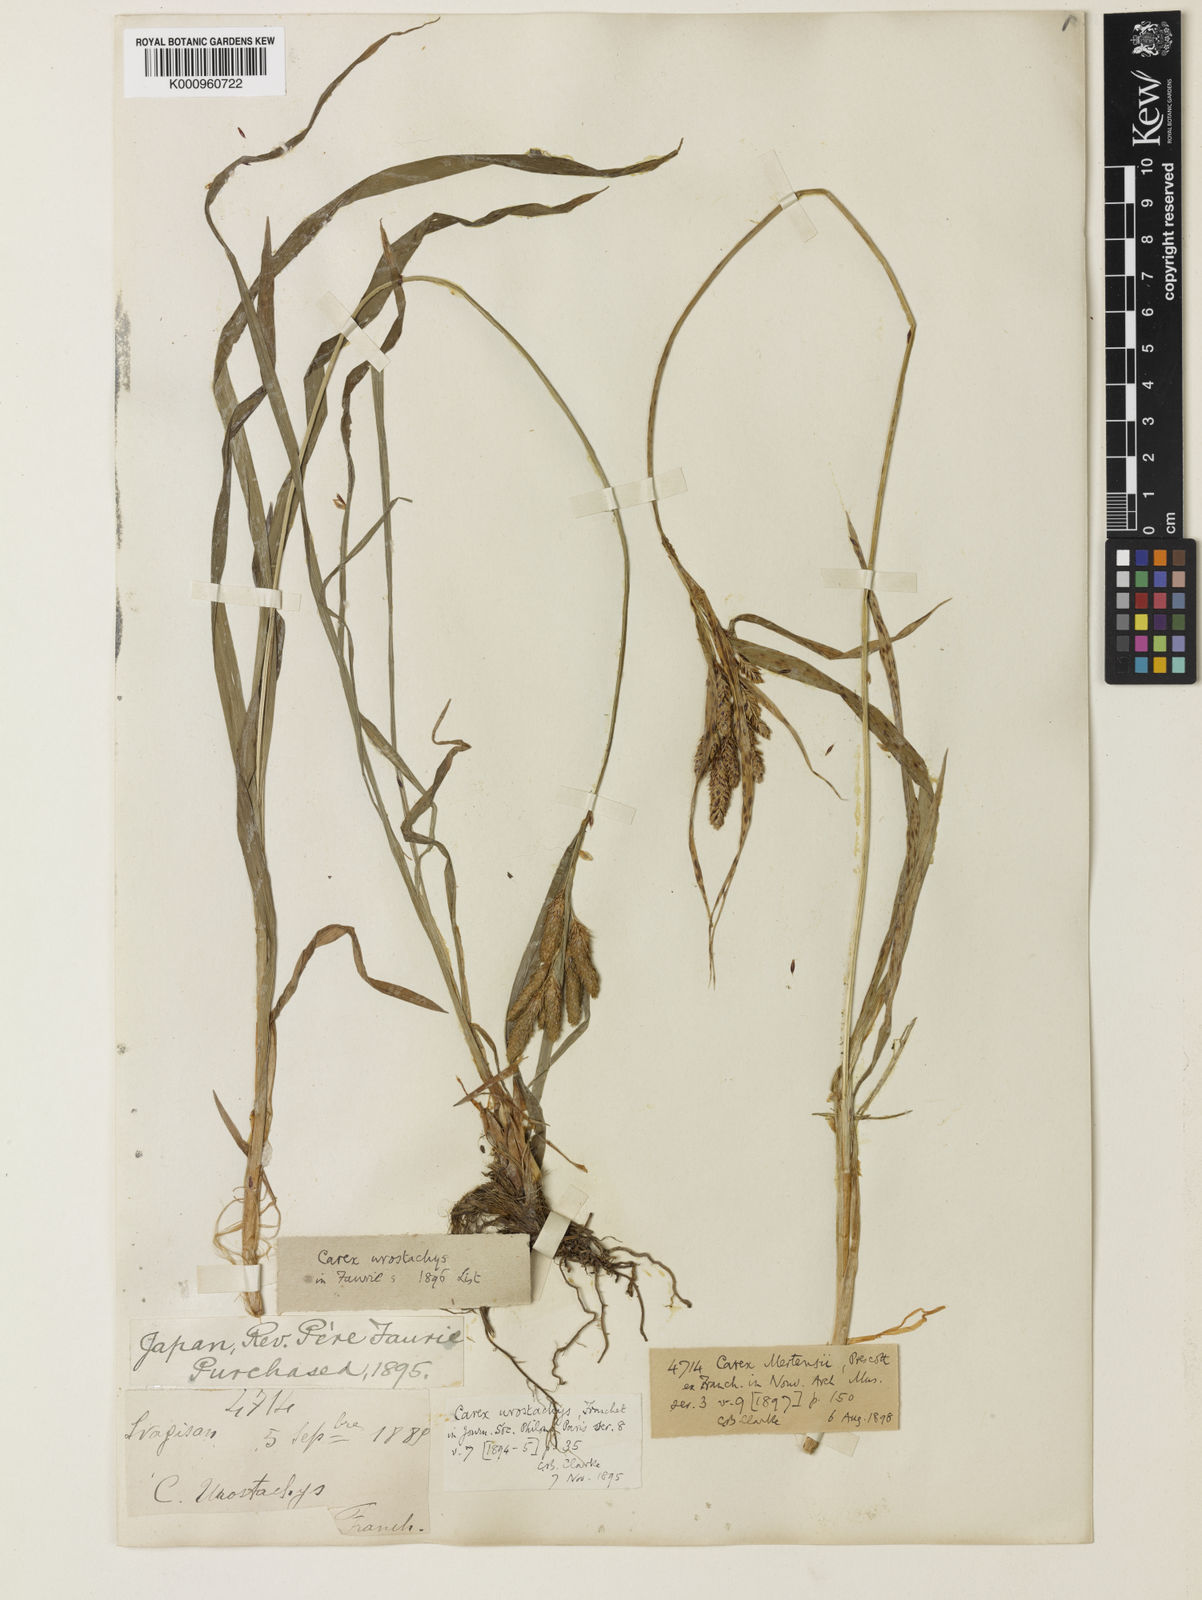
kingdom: Plantae
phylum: Tracheophyta
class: Liliopsida
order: Poales
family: Cyperaceae
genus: Carex
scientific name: Carex mertensii
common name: Mertens' sedge
